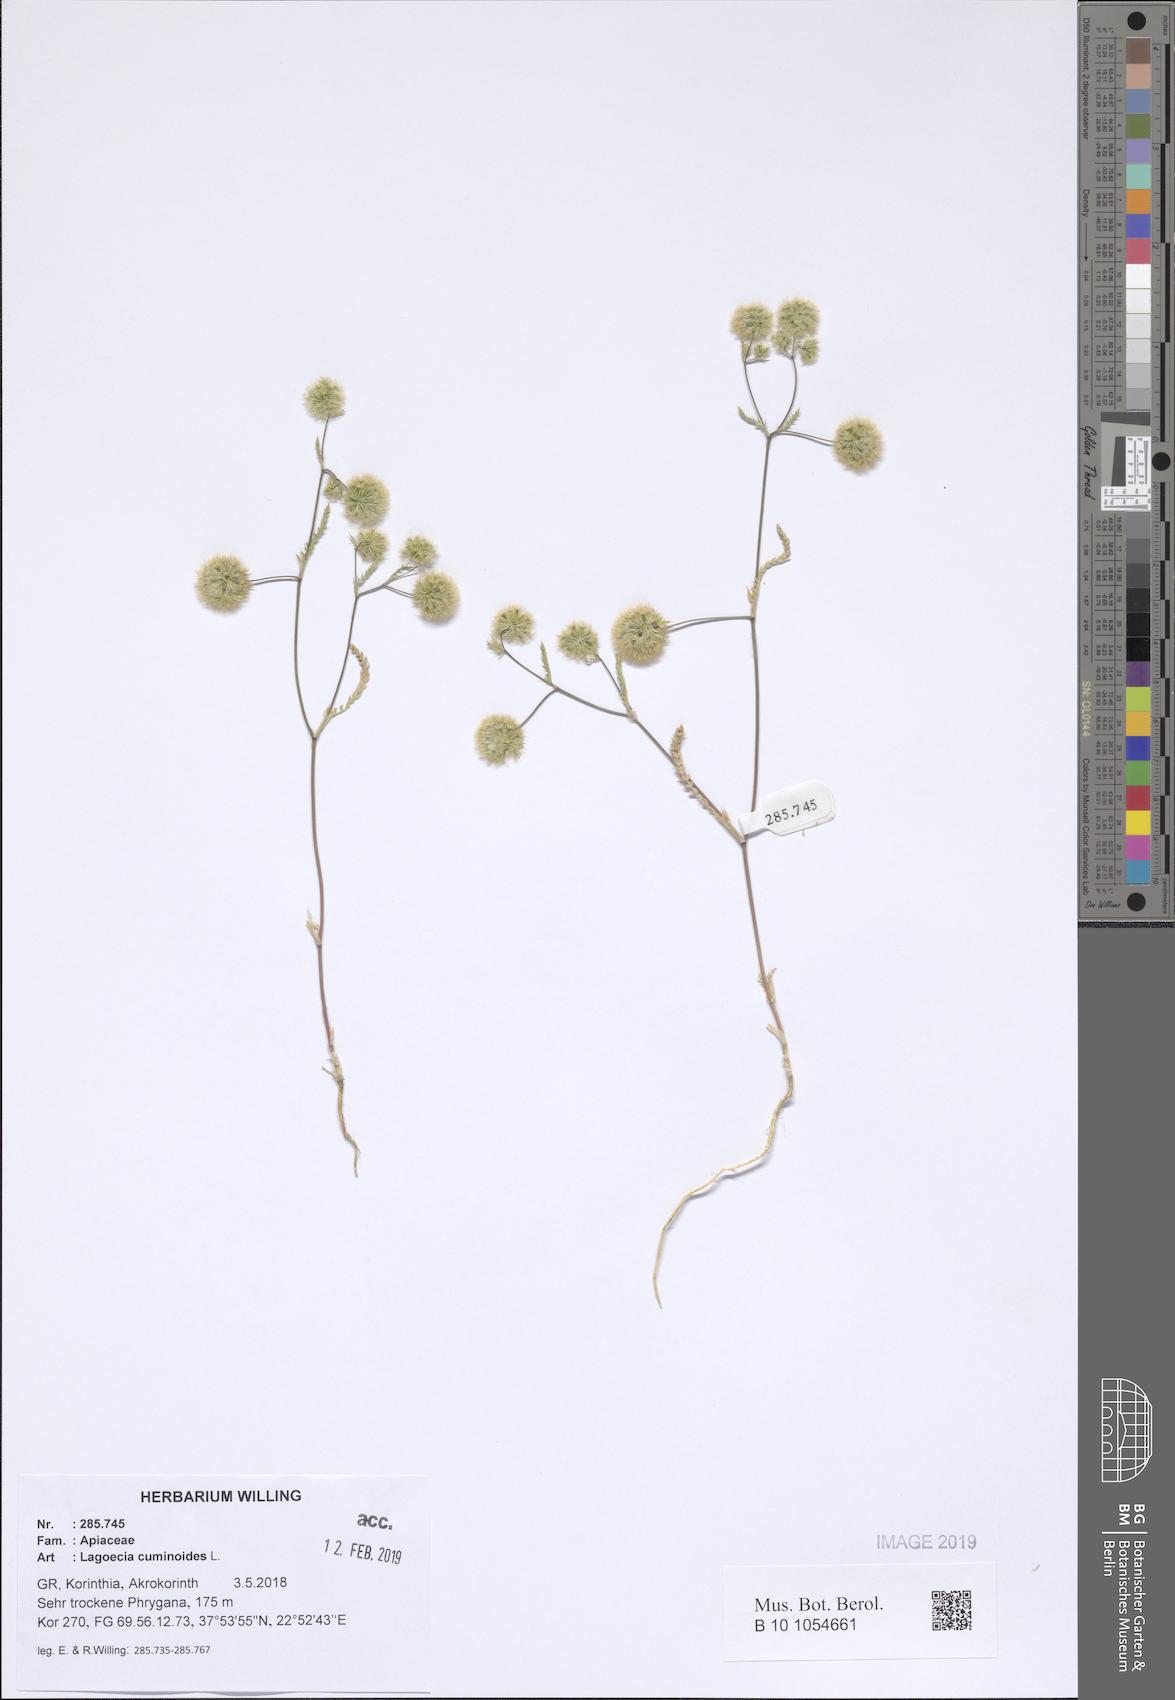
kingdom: Plantae
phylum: Tracheophyta
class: Magnoliopsida
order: Apiales
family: Apiaceae
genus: Lagoecia
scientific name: Lagoecia cuminoides
